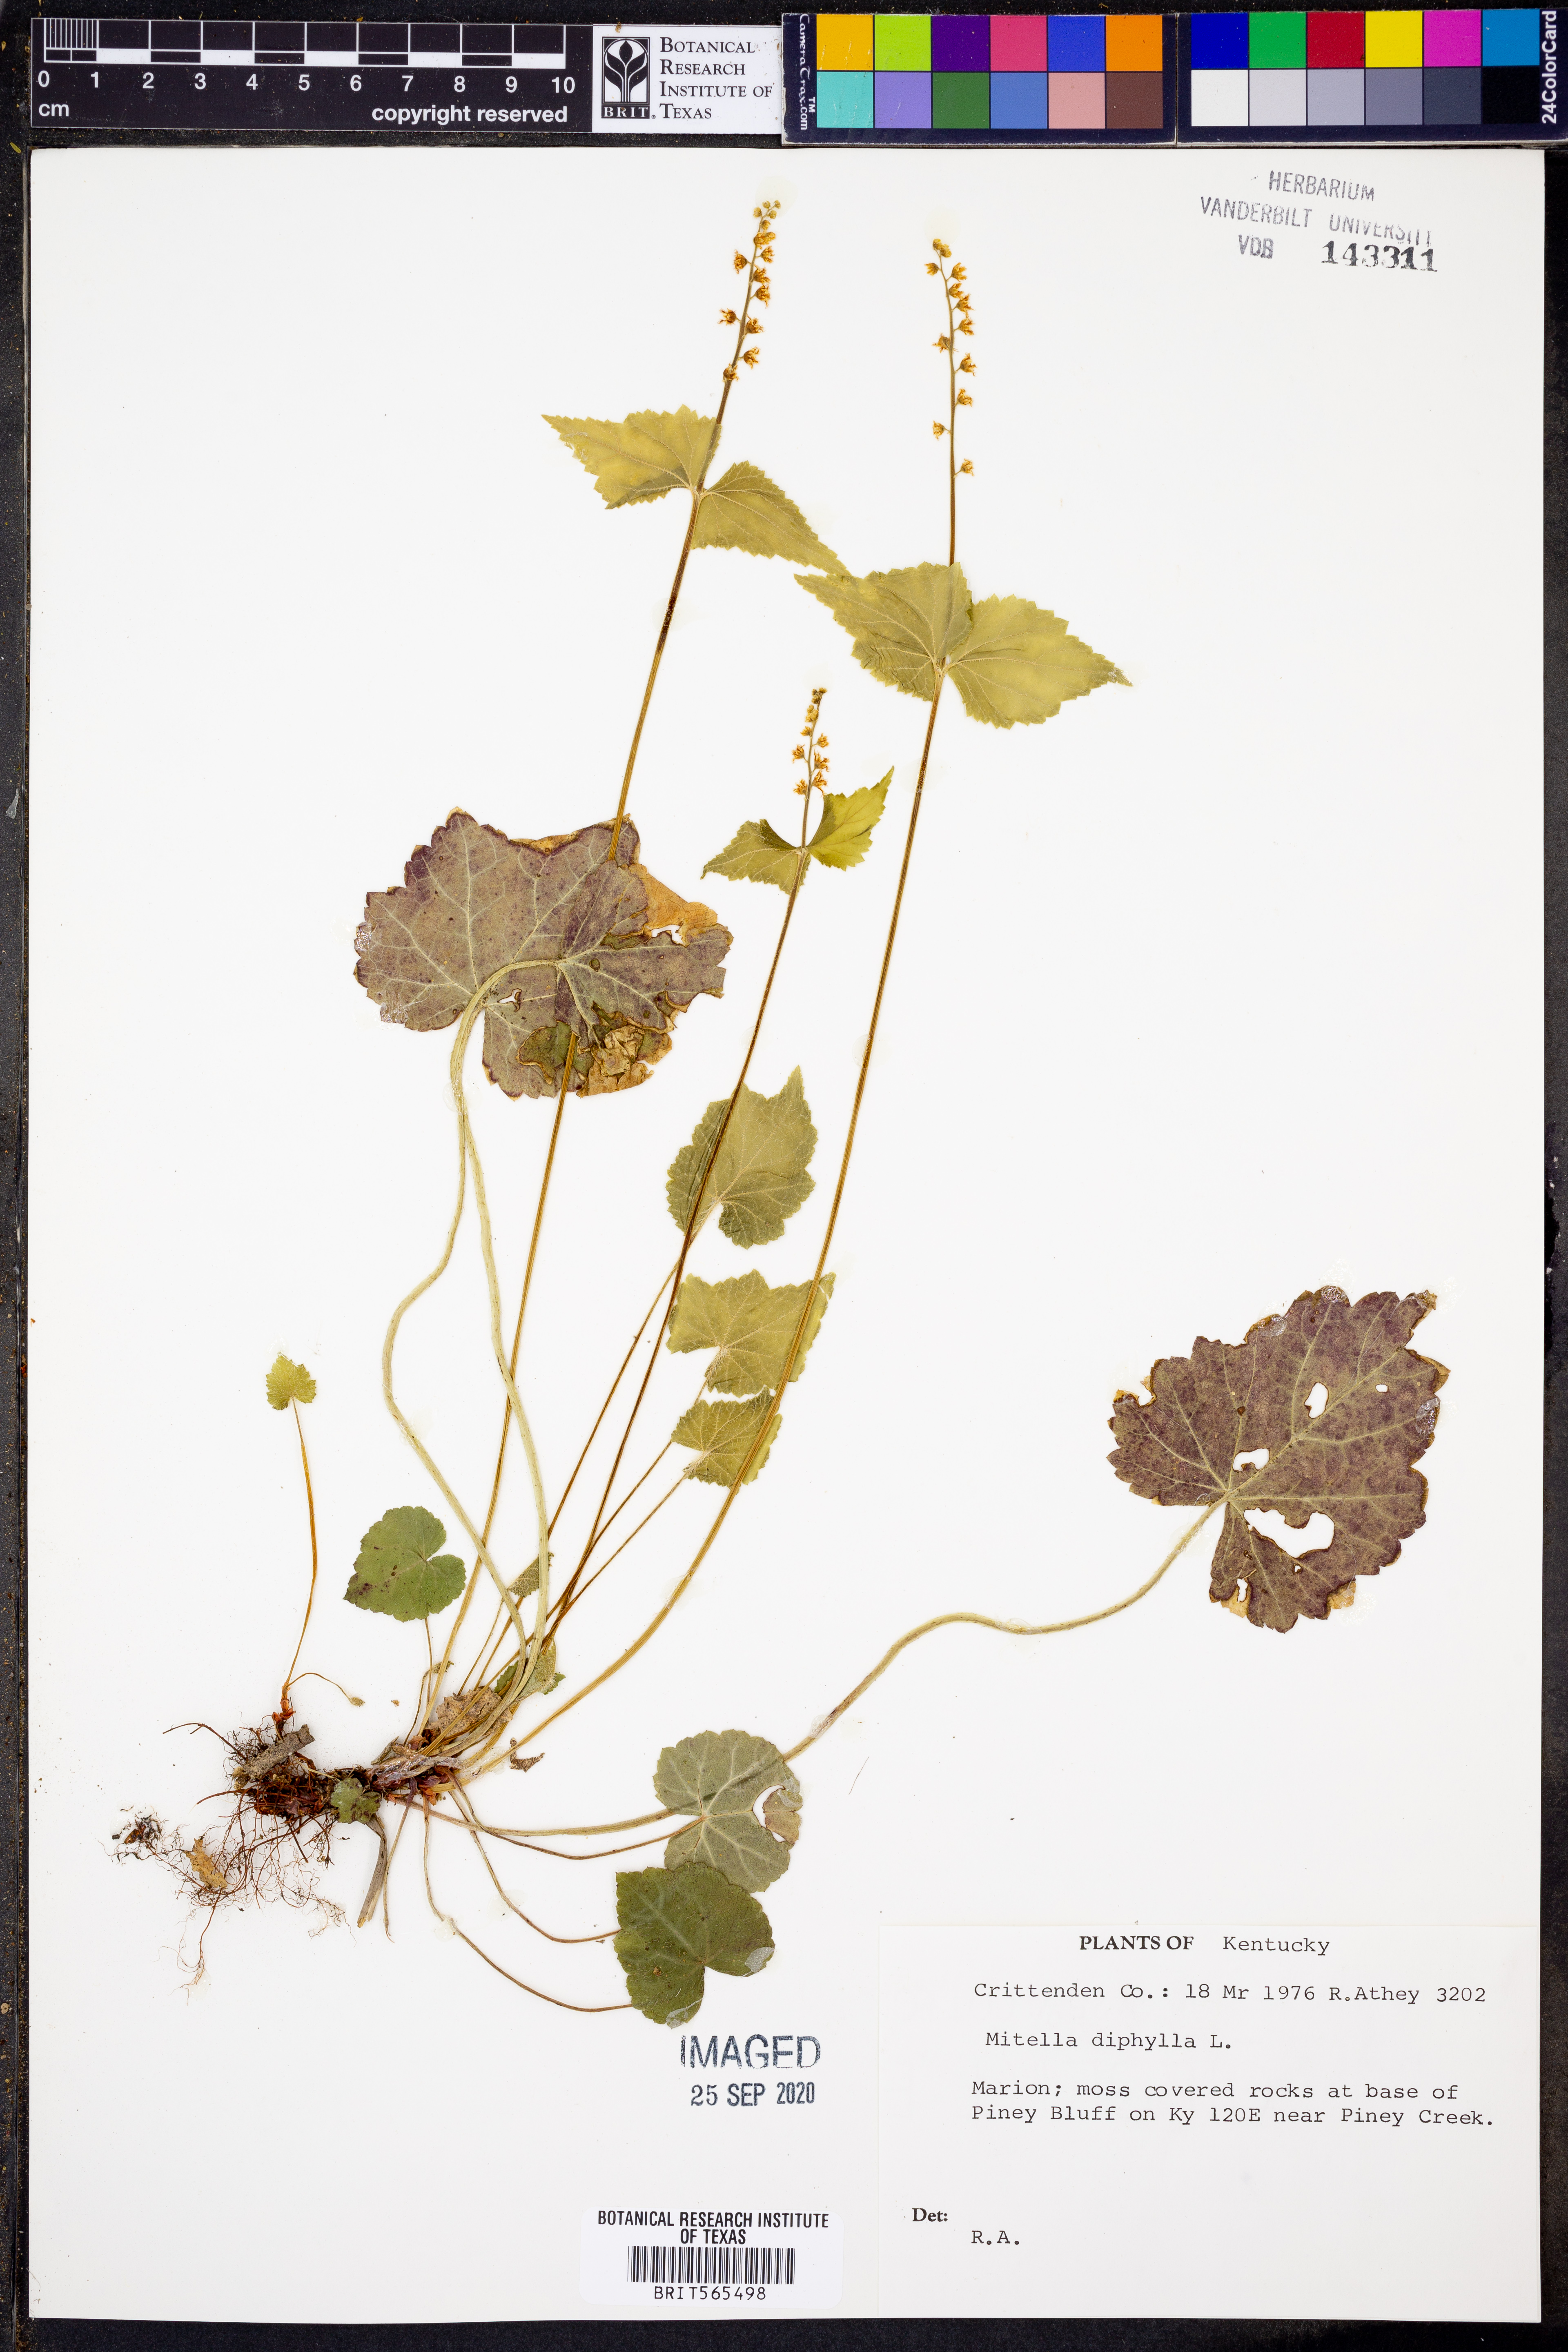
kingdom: Plantae
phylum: Tracheophyta
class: Magnoliopsida
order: Saxifragales
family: Saxifragaceae
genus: Mitella
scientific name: Mitella diphylla
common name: Coolwort
